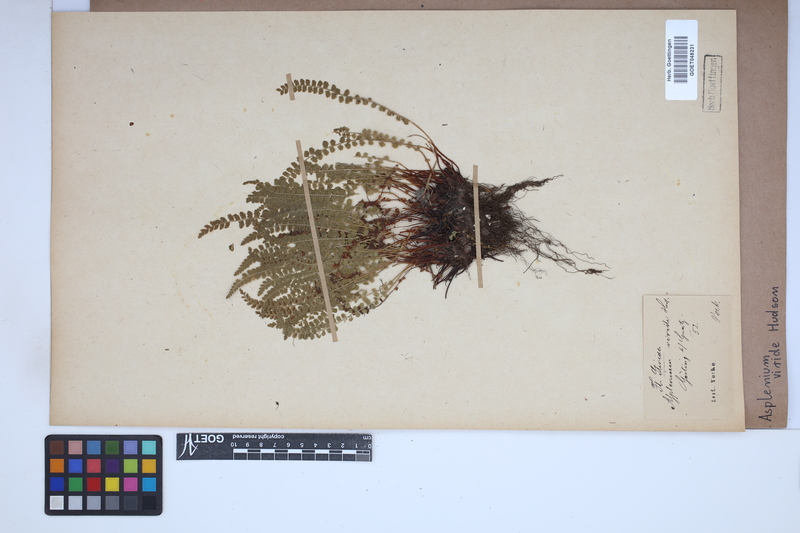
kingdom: Plantae
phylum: Tracheophyta
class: Polypodiopsida
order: Polypodiales
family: Aspleniaceae
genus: Asplenium
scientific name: Asplenium viride
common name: Green spleenwort
